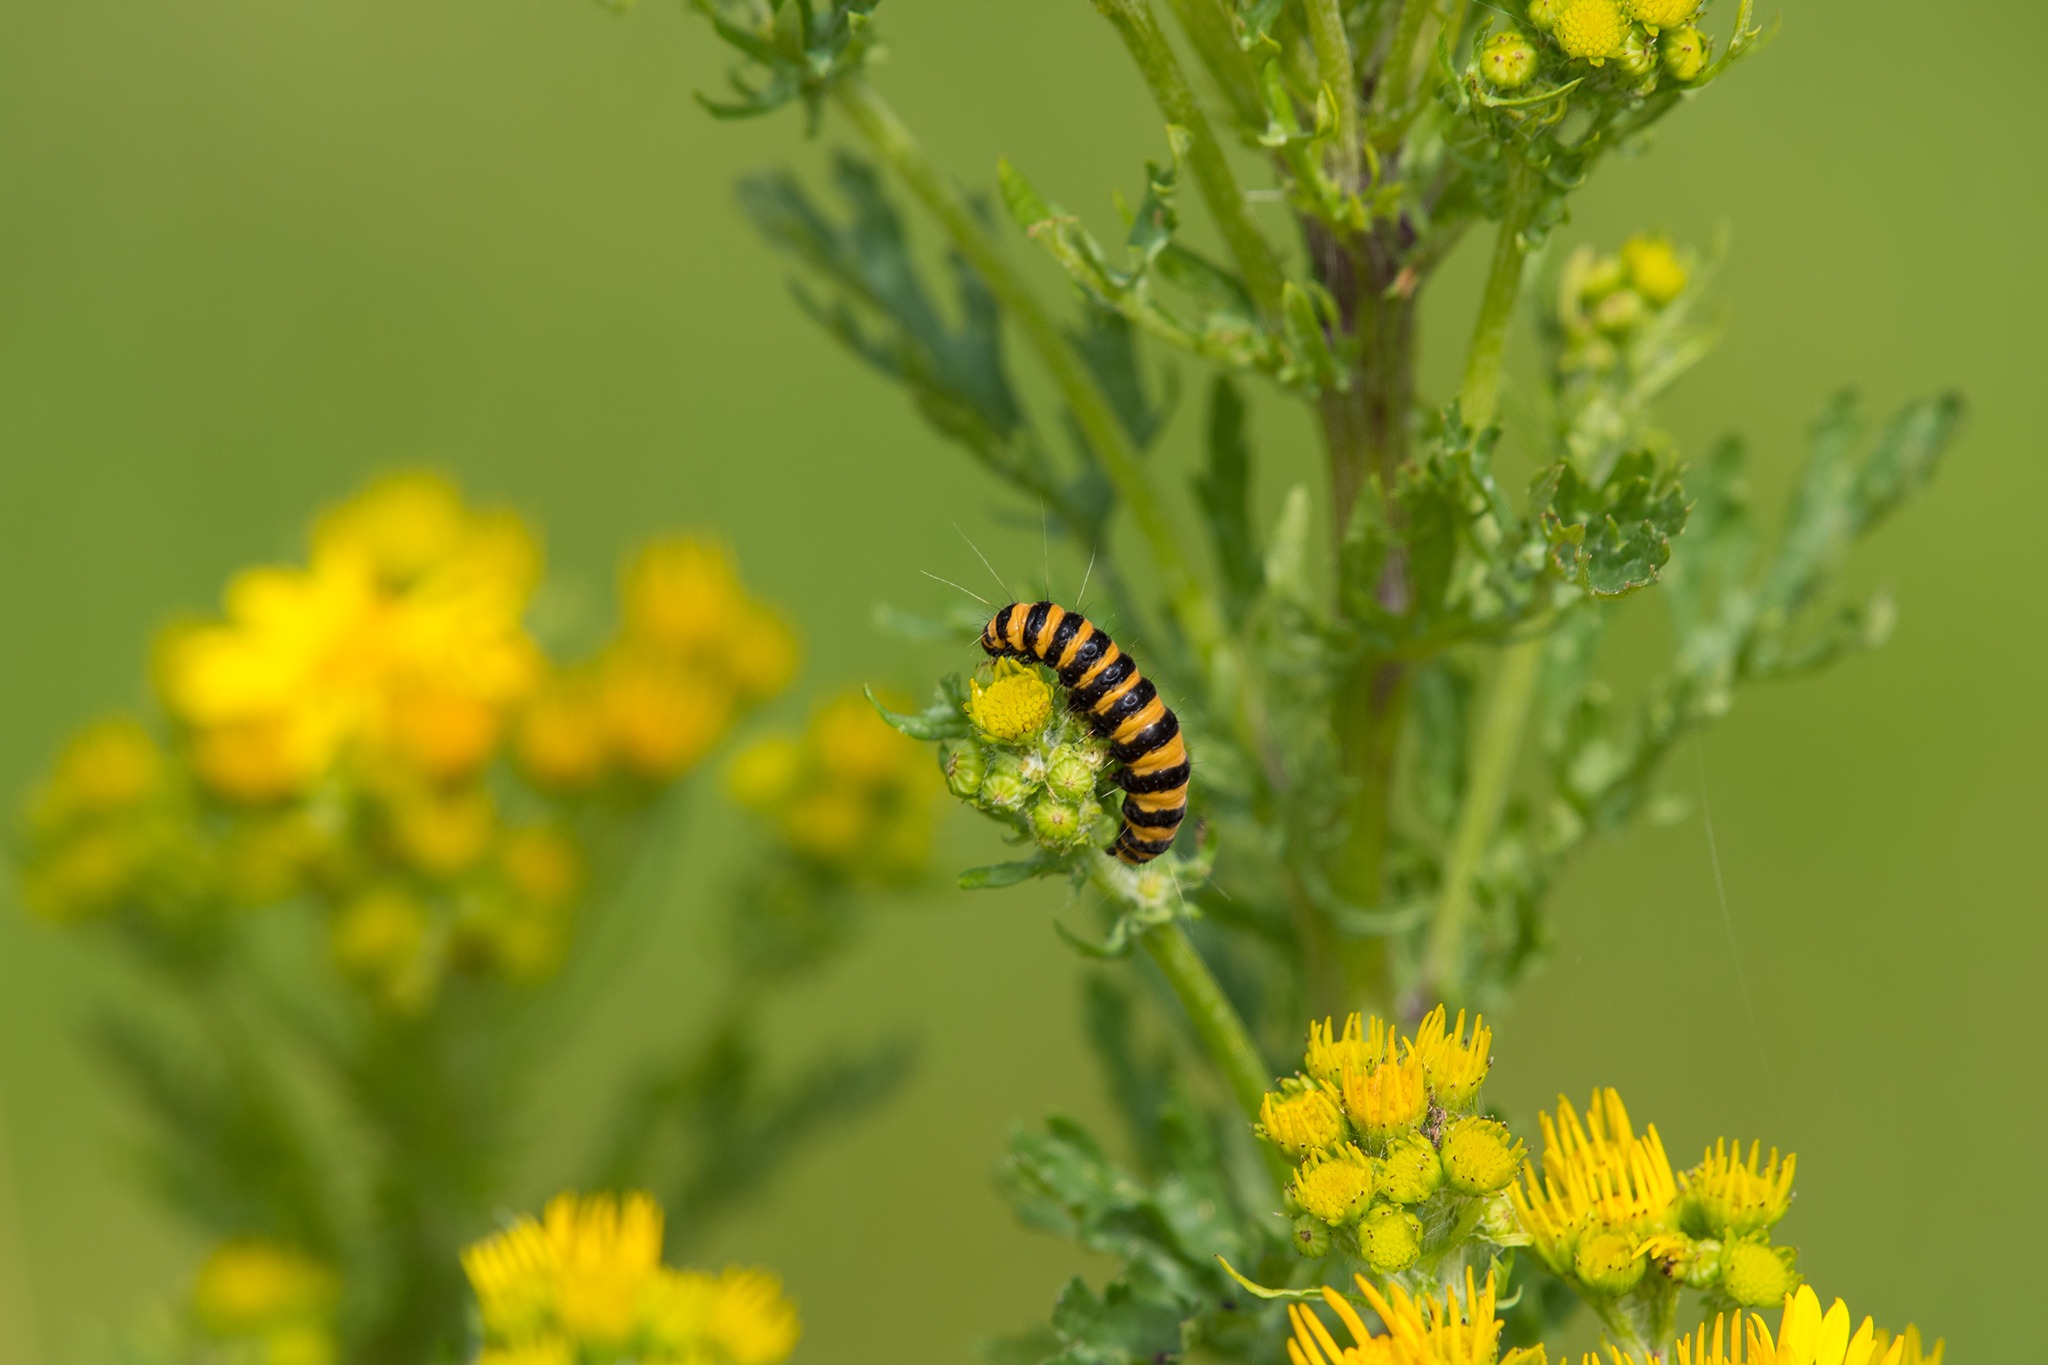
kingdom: Animalia
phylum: Arthropoda
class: Insecta
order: Lepidoptera
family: Erebidae
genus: Tyria
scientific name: Tyria jacobaeae
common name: Blodplet
